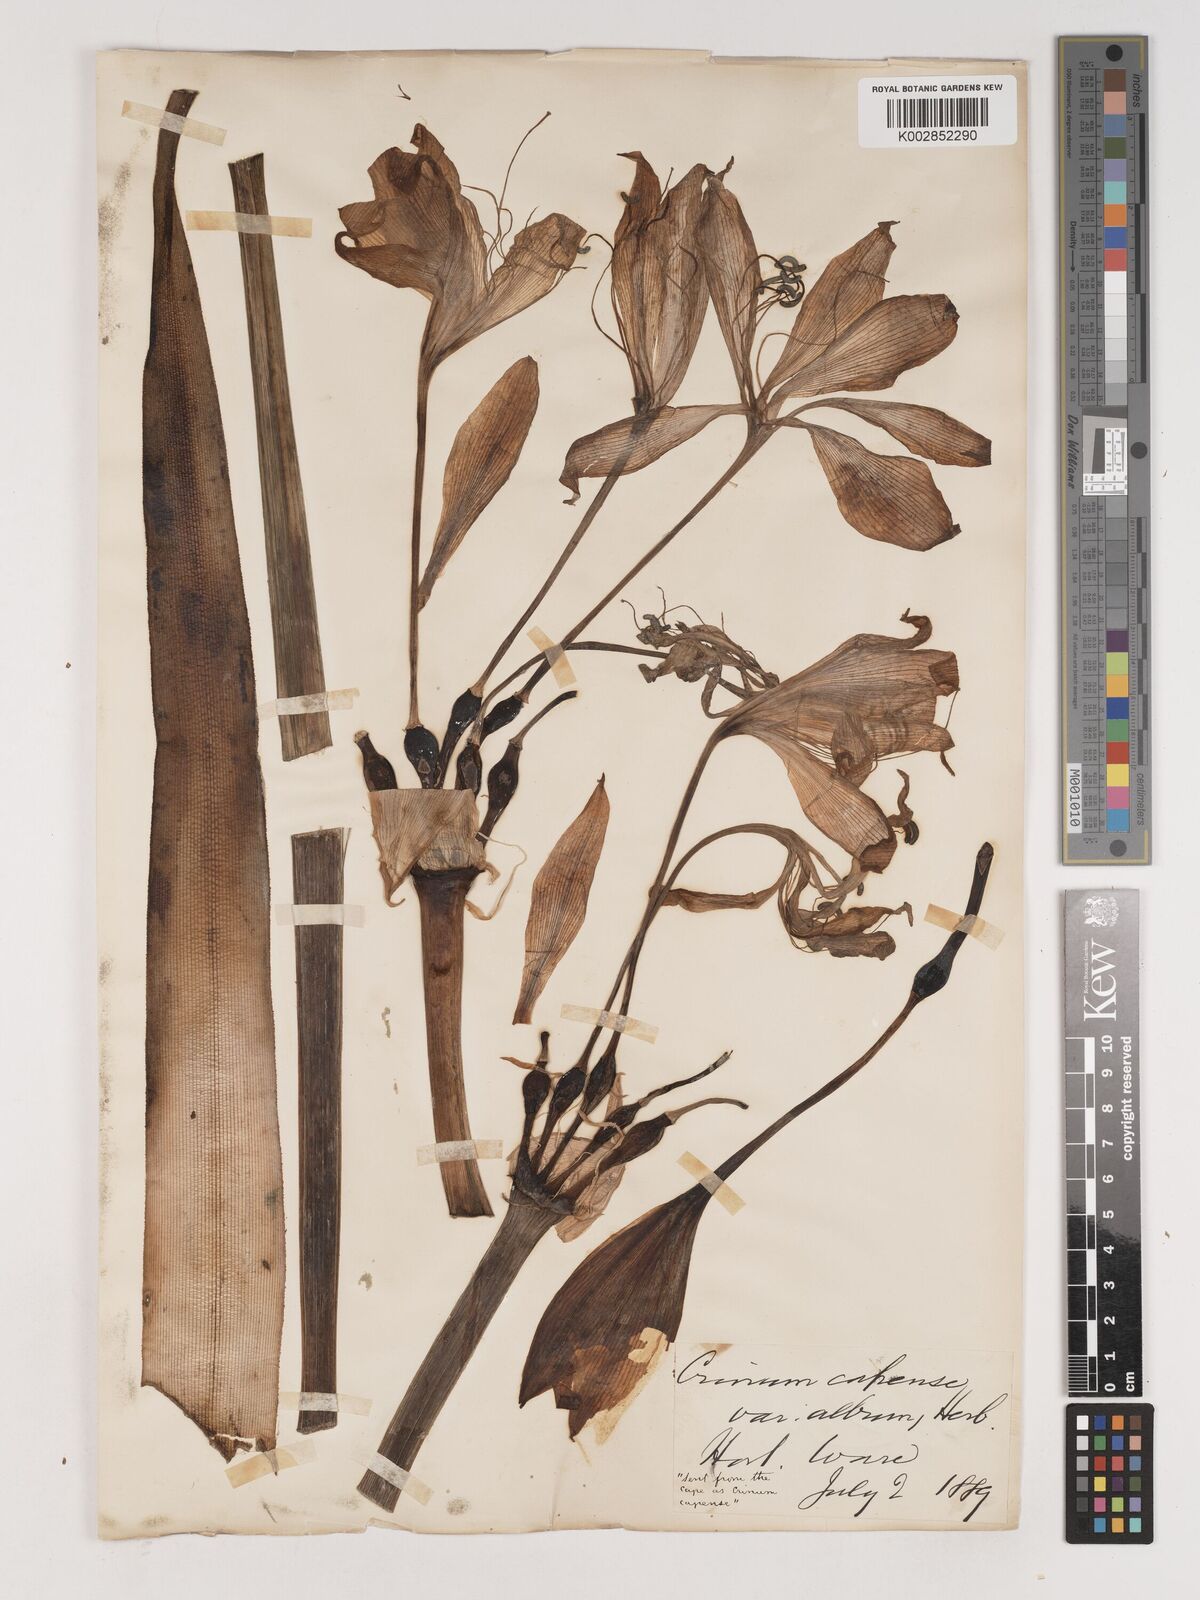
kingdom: Plantae
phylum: Tracheophyta
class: Liliopsida
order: Asparagales
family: Amaryllidaceae
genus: Crinum
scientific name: Crinum
